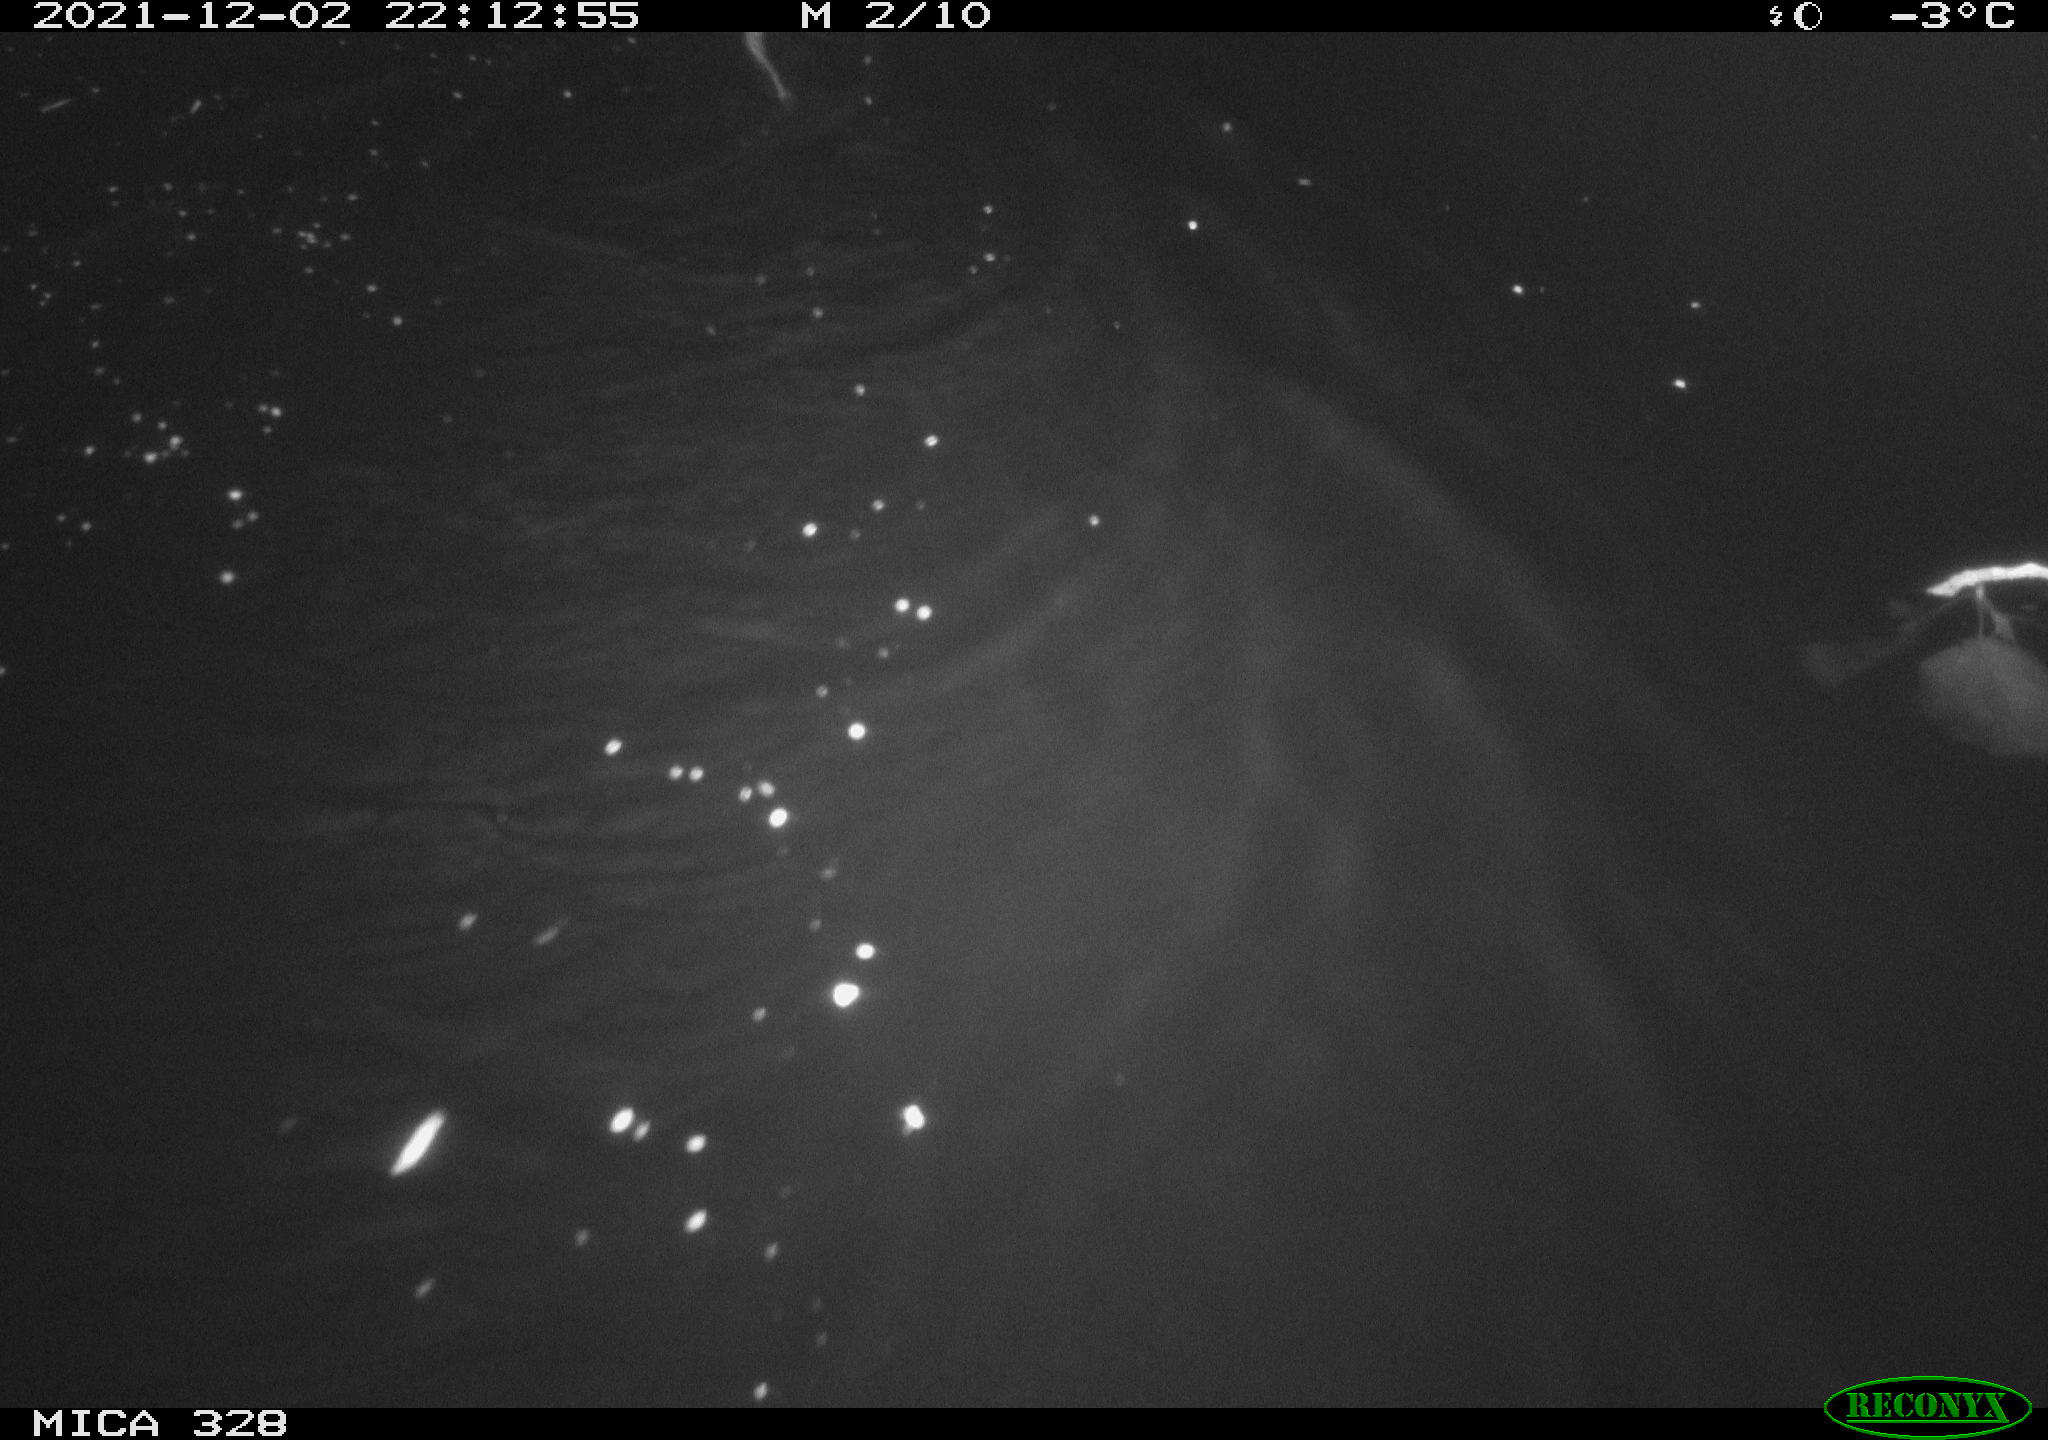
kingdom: Animalia
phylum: Chordata
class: Mammalia
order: Rodentia
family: Cricetidae
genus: Ondatra
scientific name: Ondatra zibethicus
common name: Muskrat
